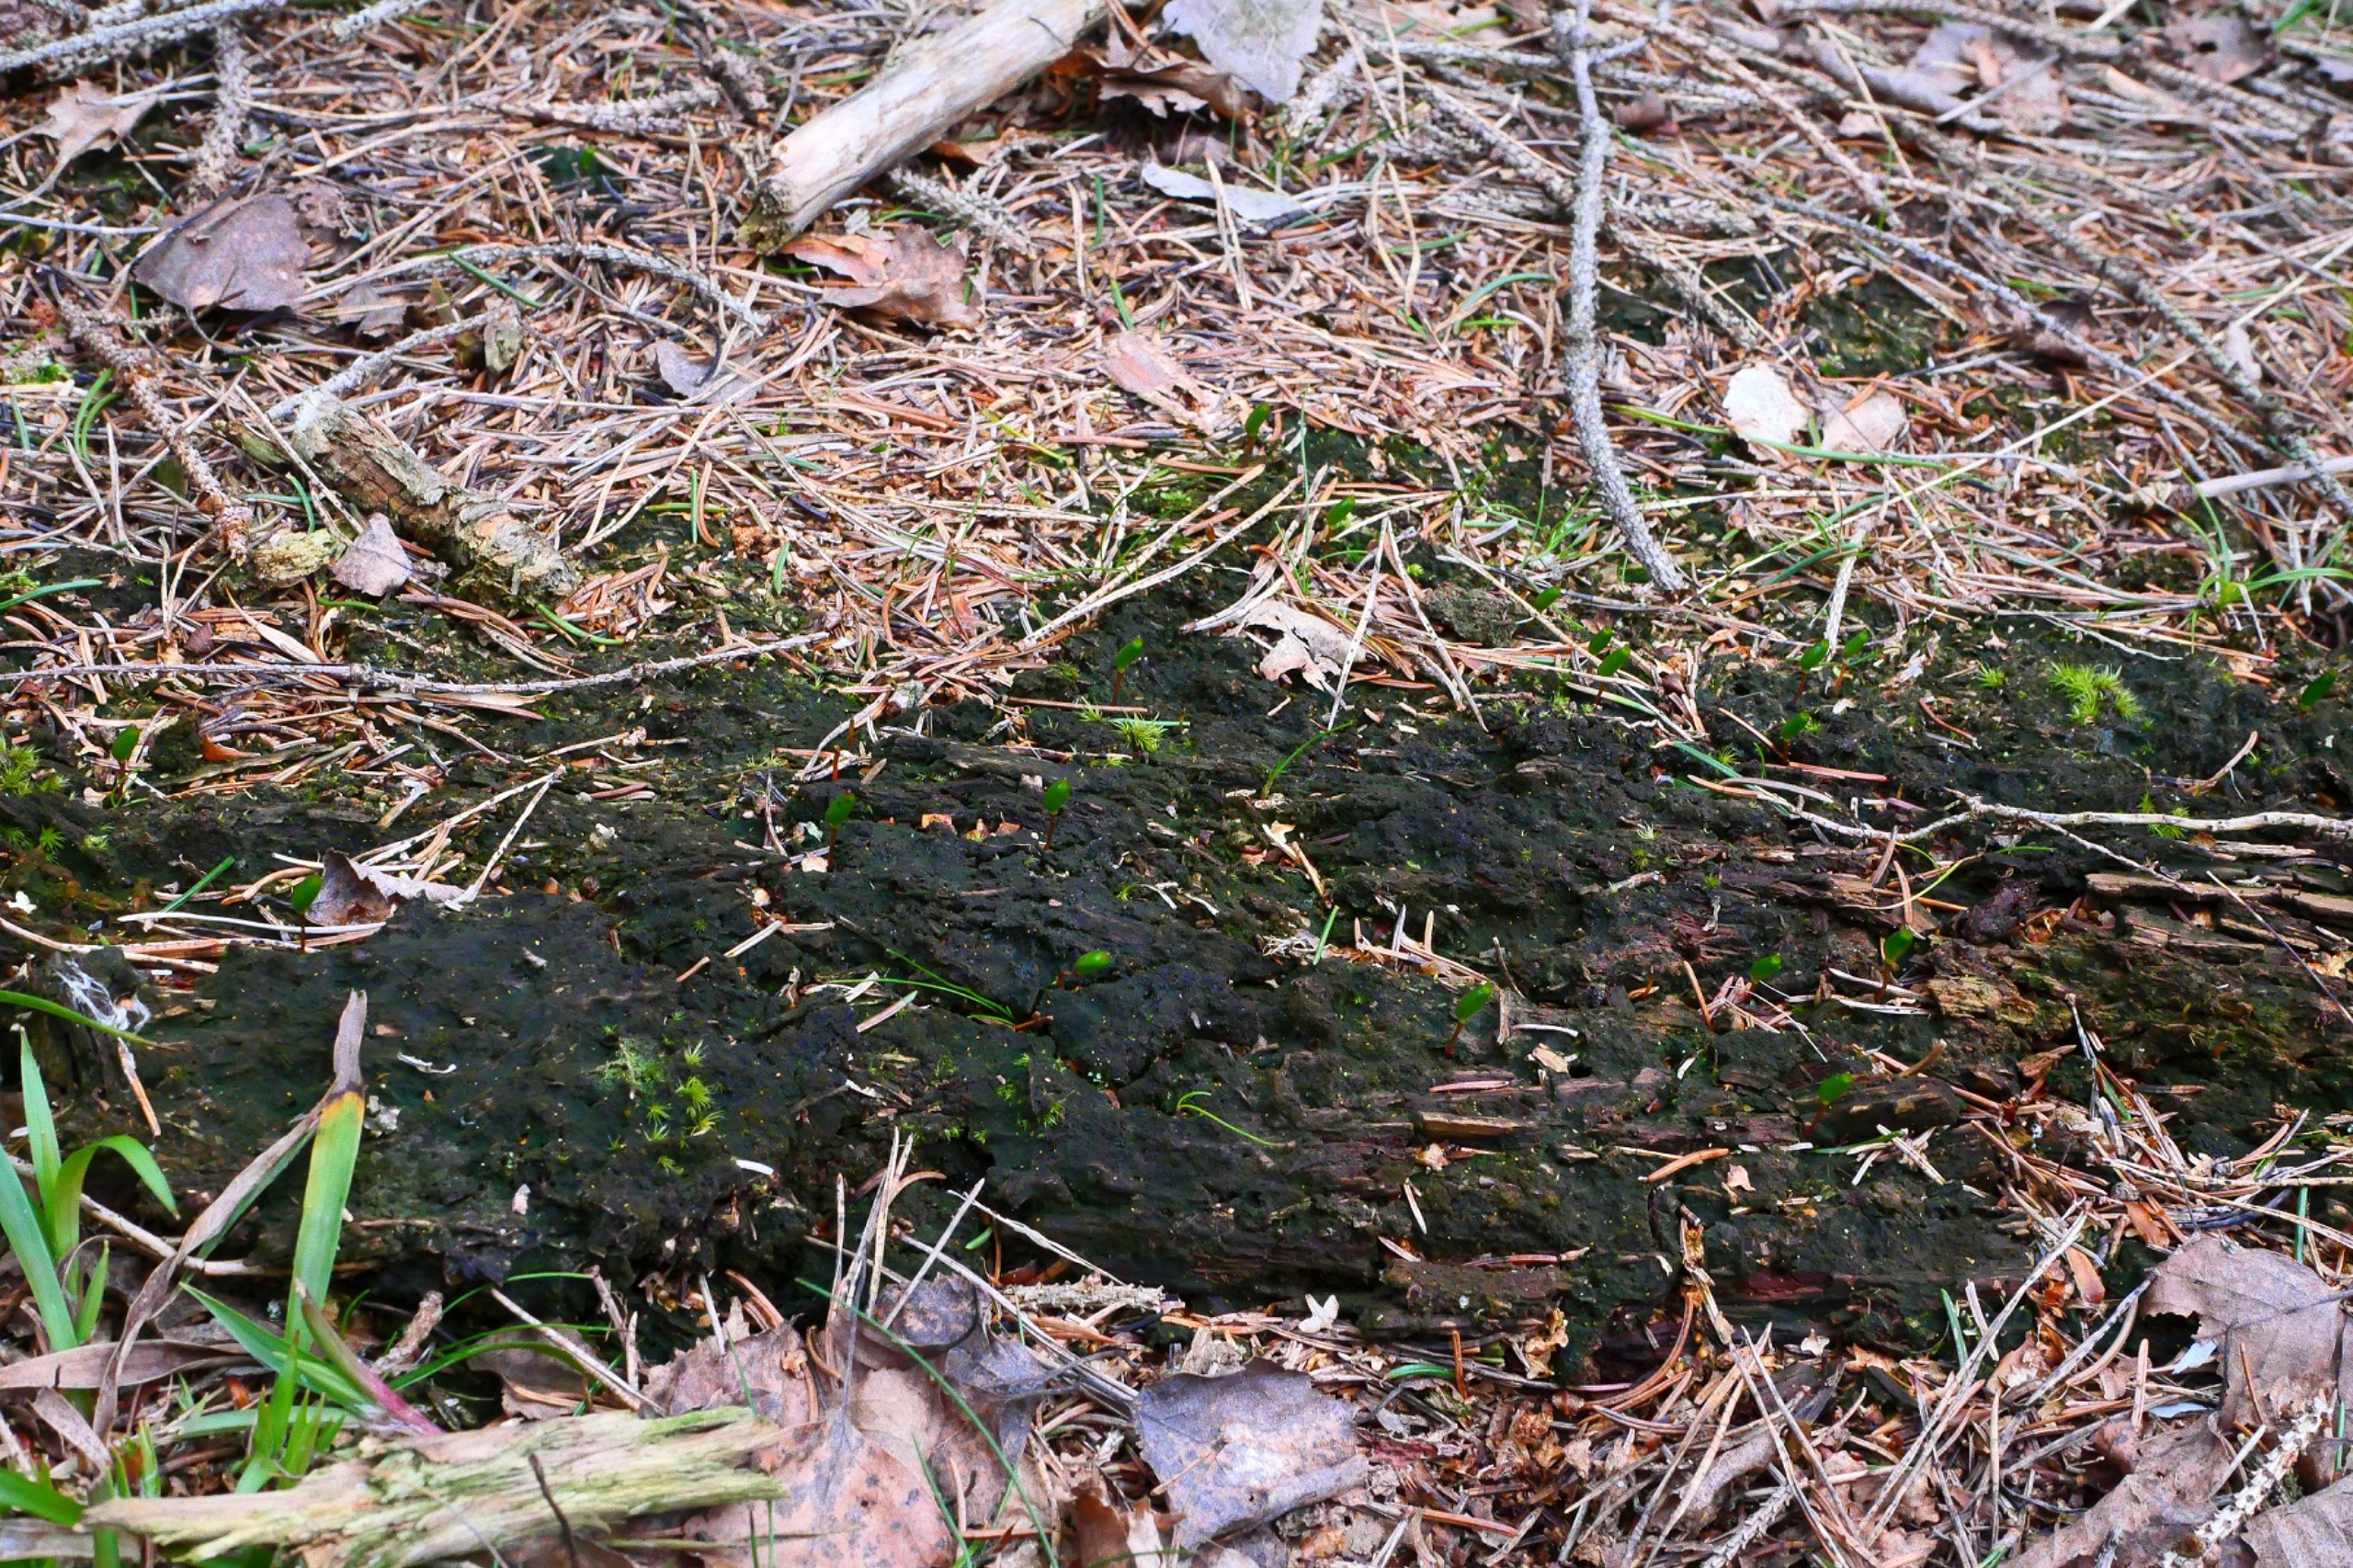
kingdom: Plantae
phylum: Bryophyta
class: Bryopsida
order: Buxbaumiales
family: Buxbaumiaceae
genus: Buxbaumia
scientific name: Buxbaumia viridis
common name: Grøn buxbaumia
